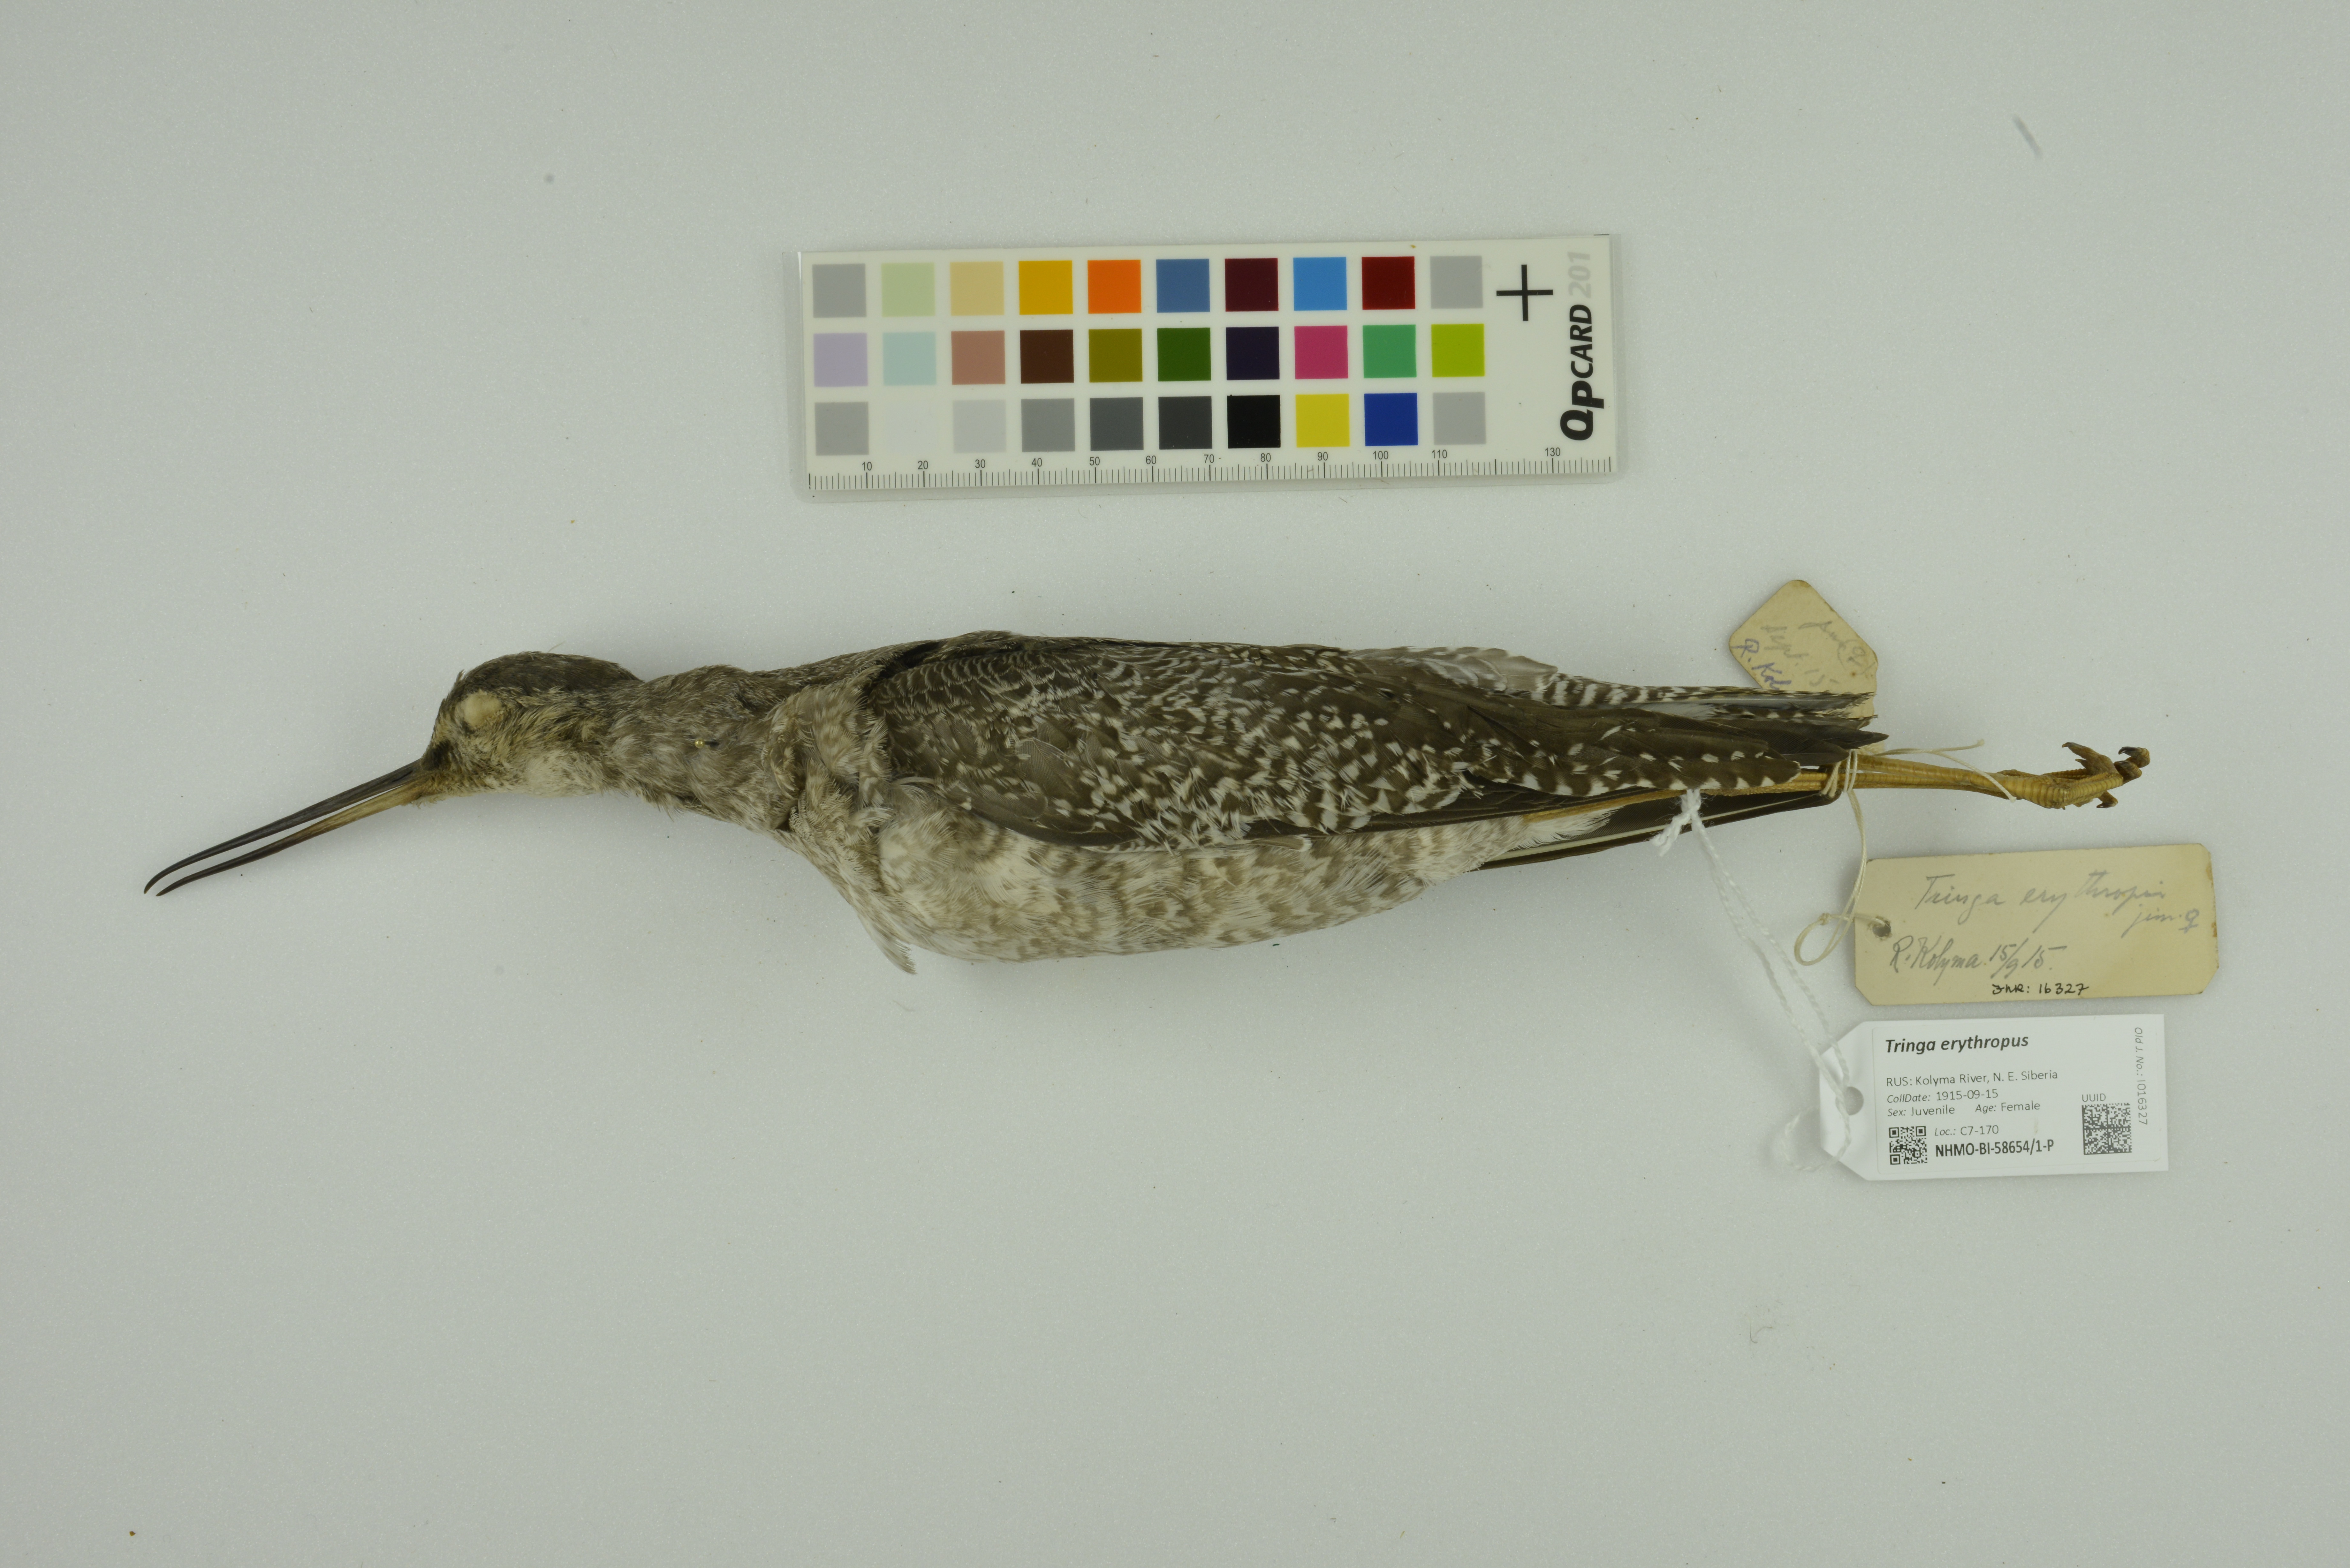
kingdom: Animalia
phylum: Chordata
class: Aves
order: Charadriiformes
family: Scolopacidae
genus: Tringa
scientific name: Tringa erythropus
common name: Spotted redshank
